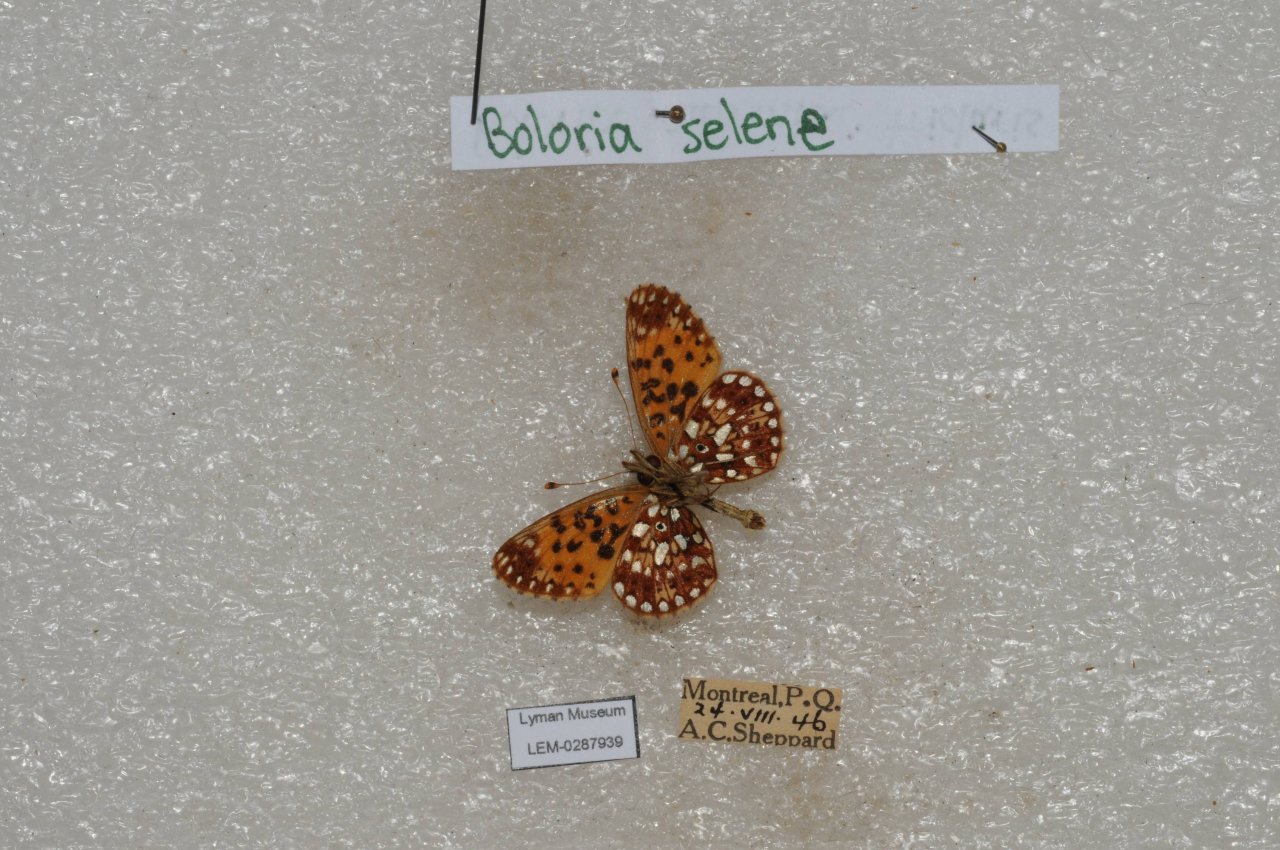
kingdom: Animalia
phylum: Arthropoda
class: Insecta
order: Lepidoptera
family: Nymphalidae
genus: Boloria
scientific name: Boloria selene
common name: Silver-bordered Fritillary
